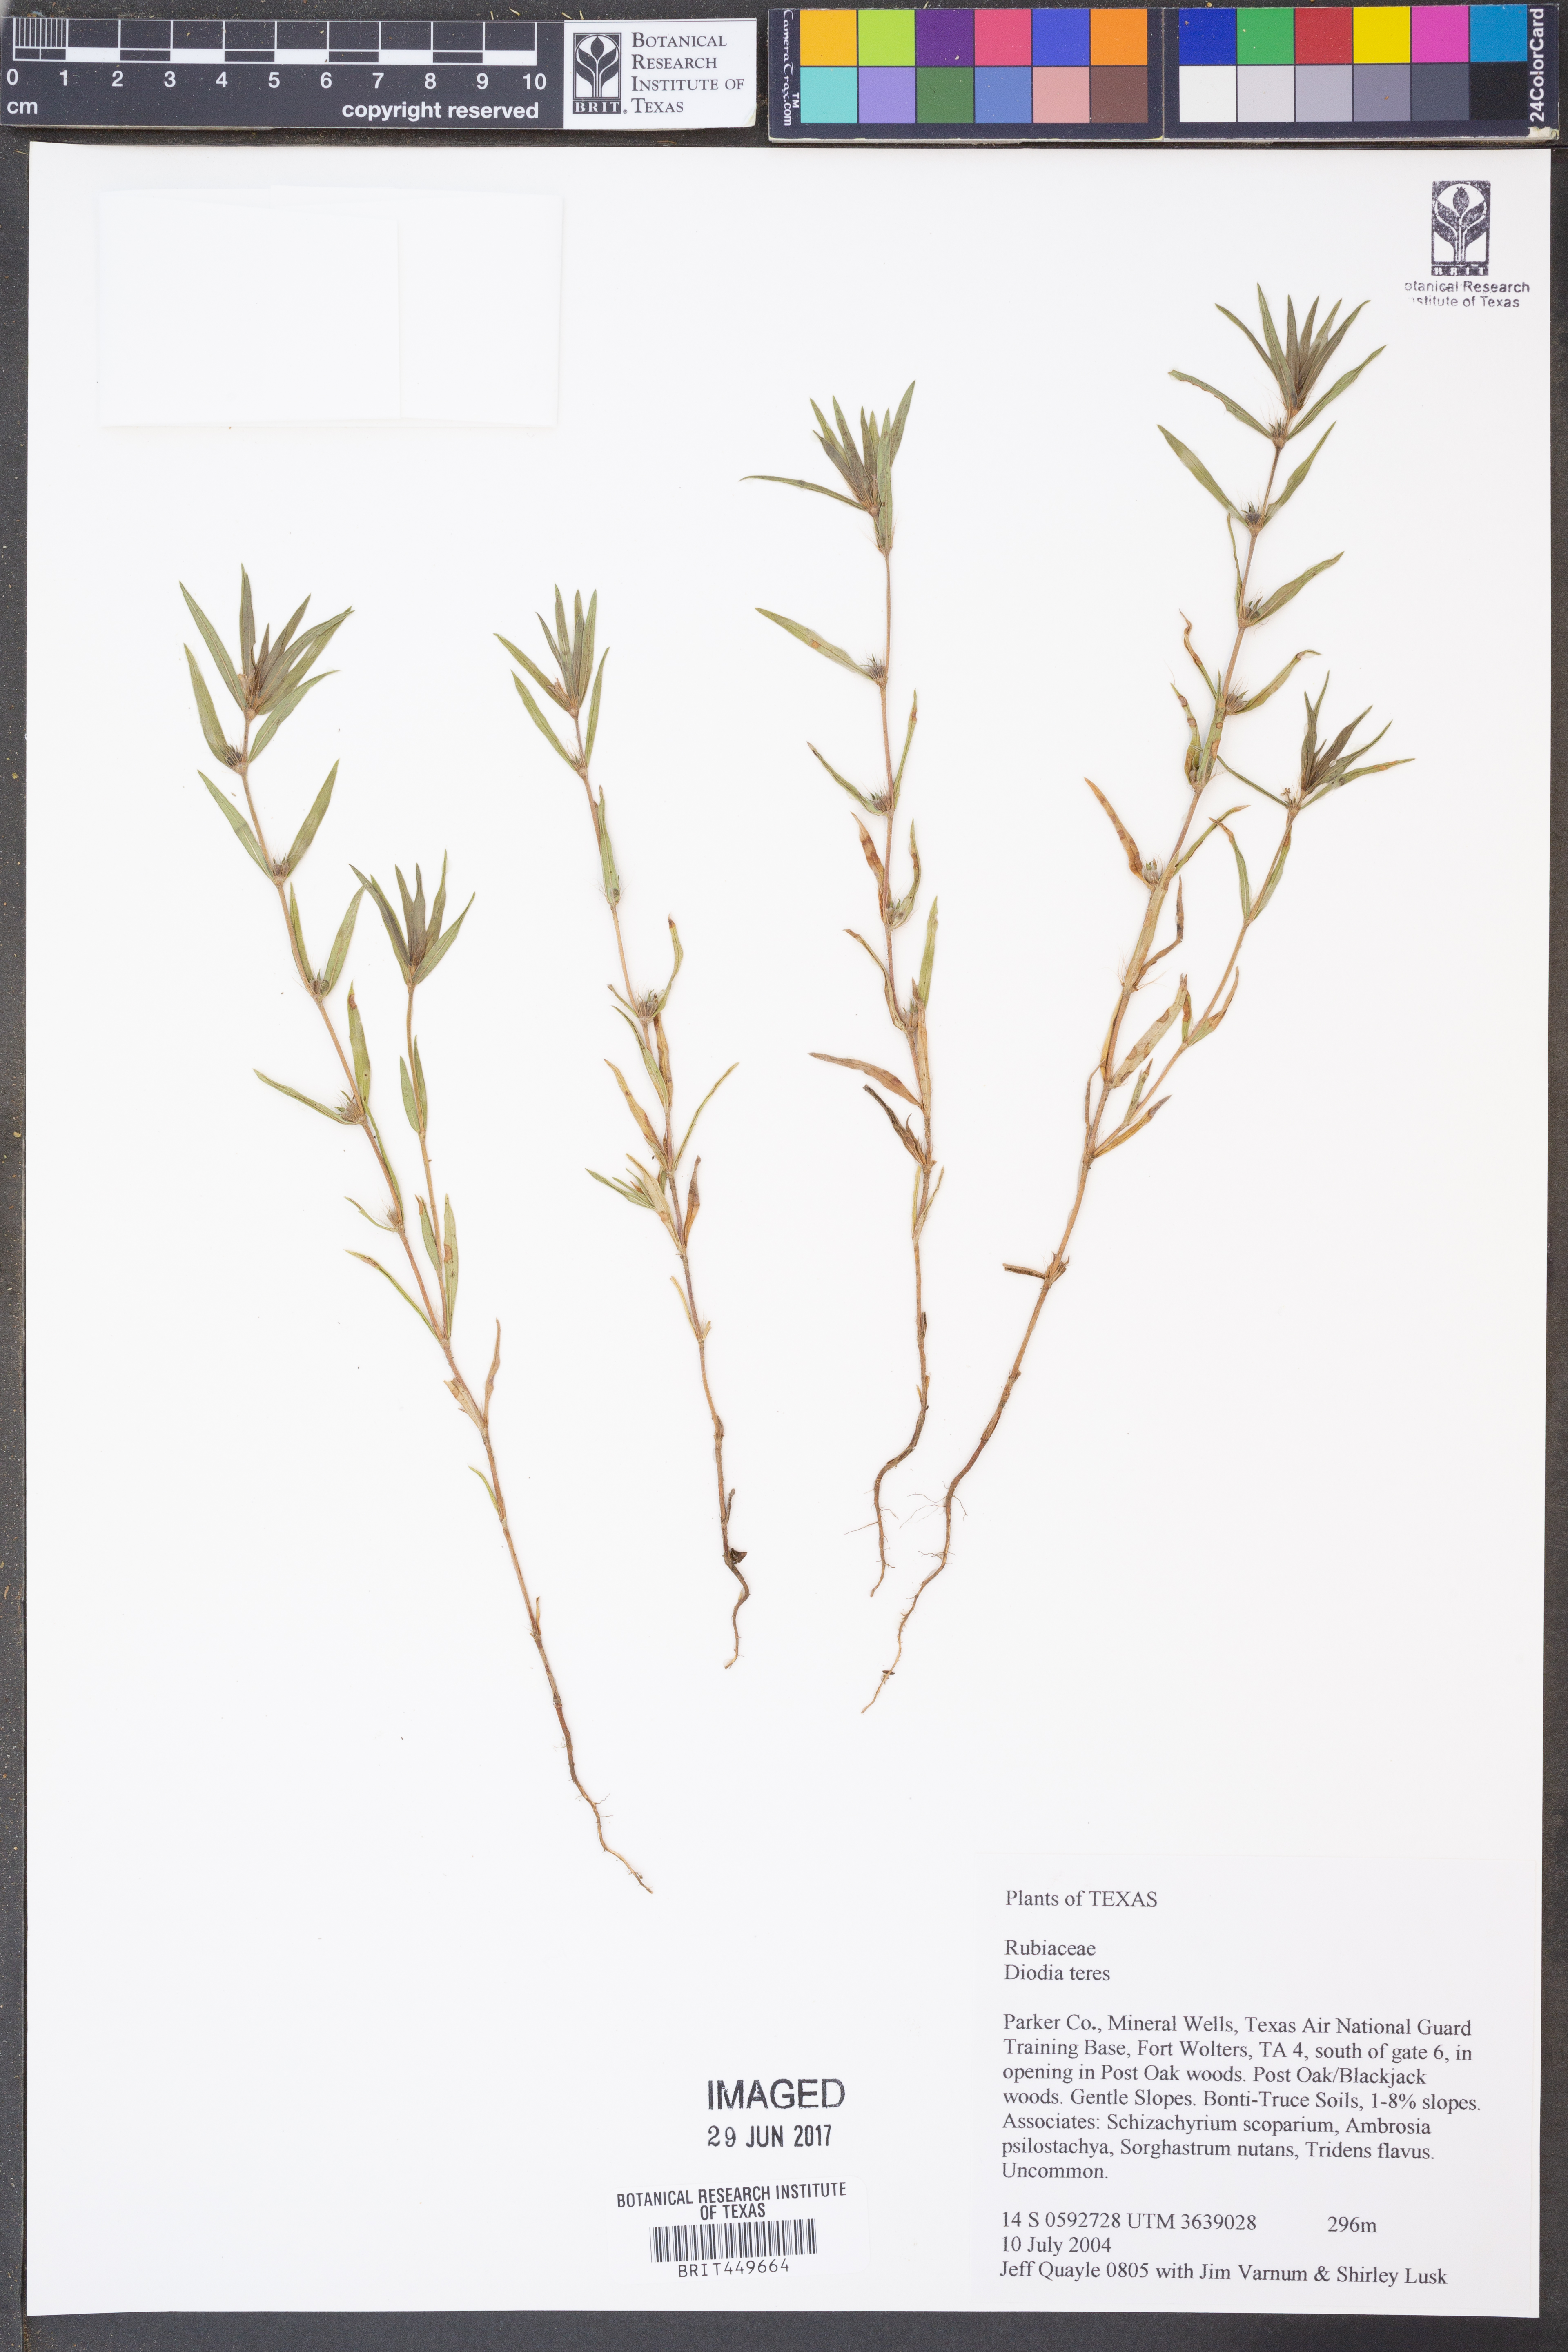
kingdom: Plantae
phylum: Tracheophyta
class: Magnoliopsida
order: Gentianales
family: Rubiaceae
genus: Hexasepalum
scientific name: Hexasepalum teres
